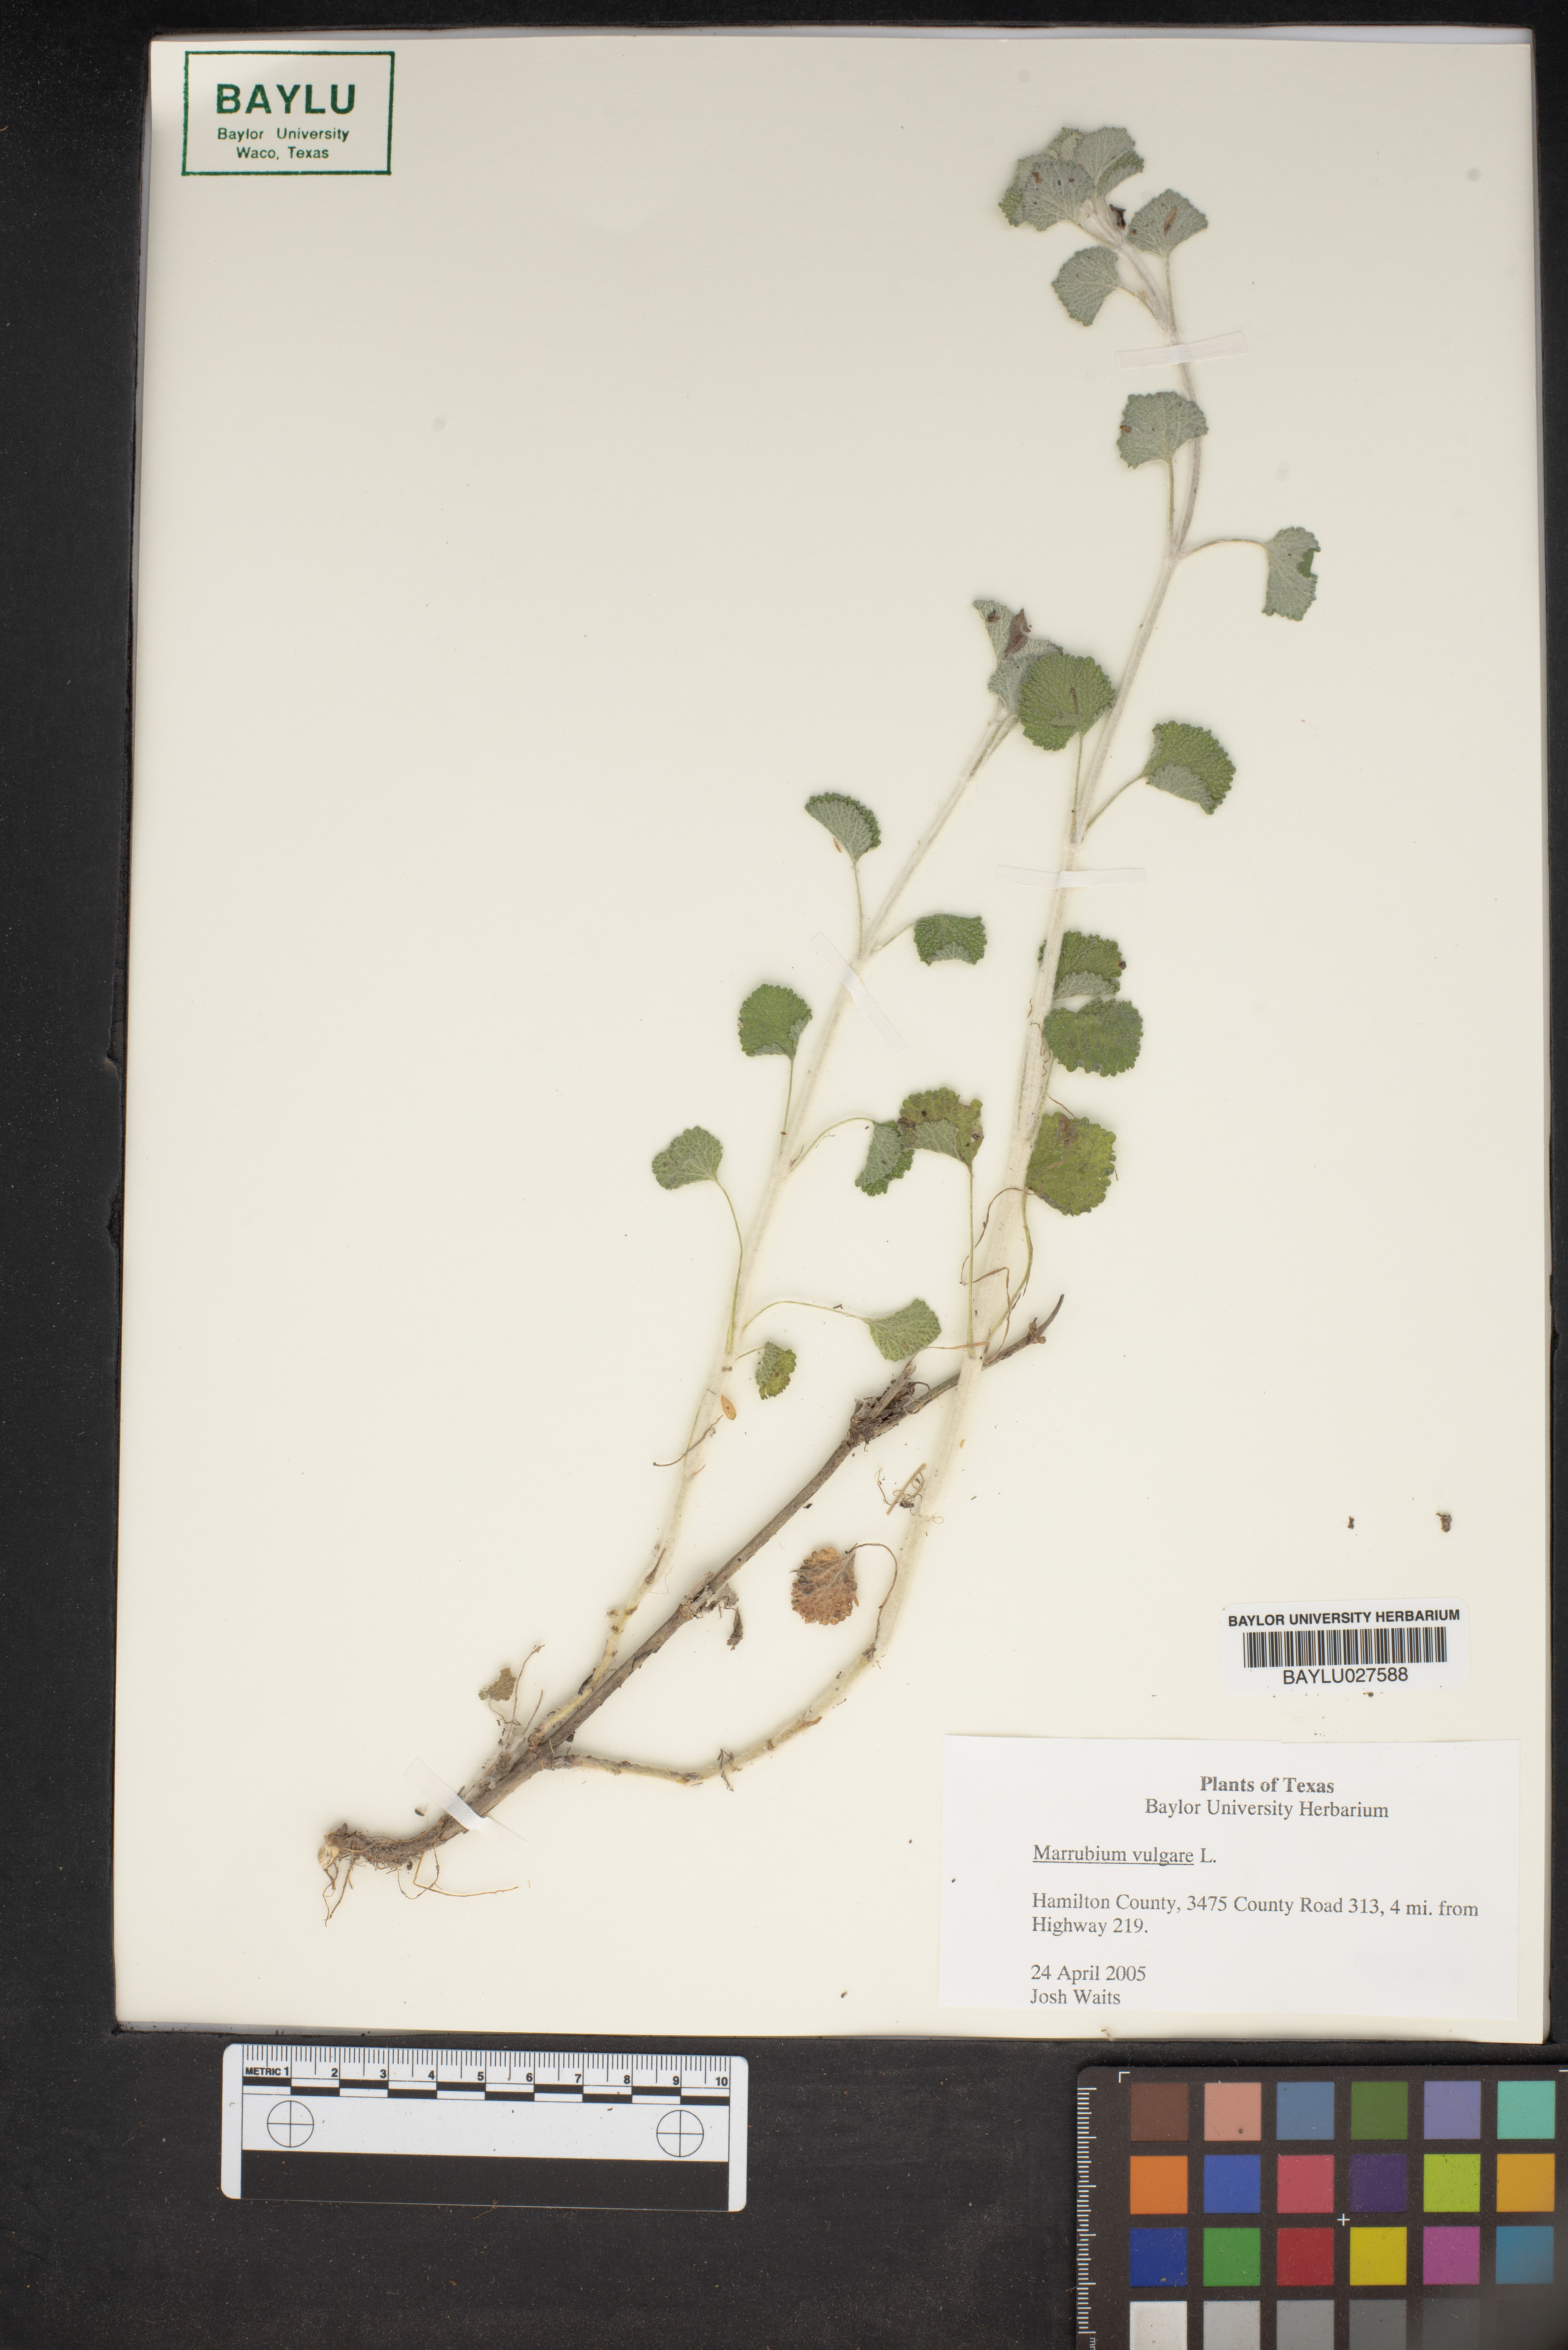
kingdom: Plantae
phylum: Tracheophyta
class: Magnoliopsida
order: Lamiales
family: Lamiaceae
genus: Marrubium
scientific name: Marrubium vulgare
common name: Horehound
